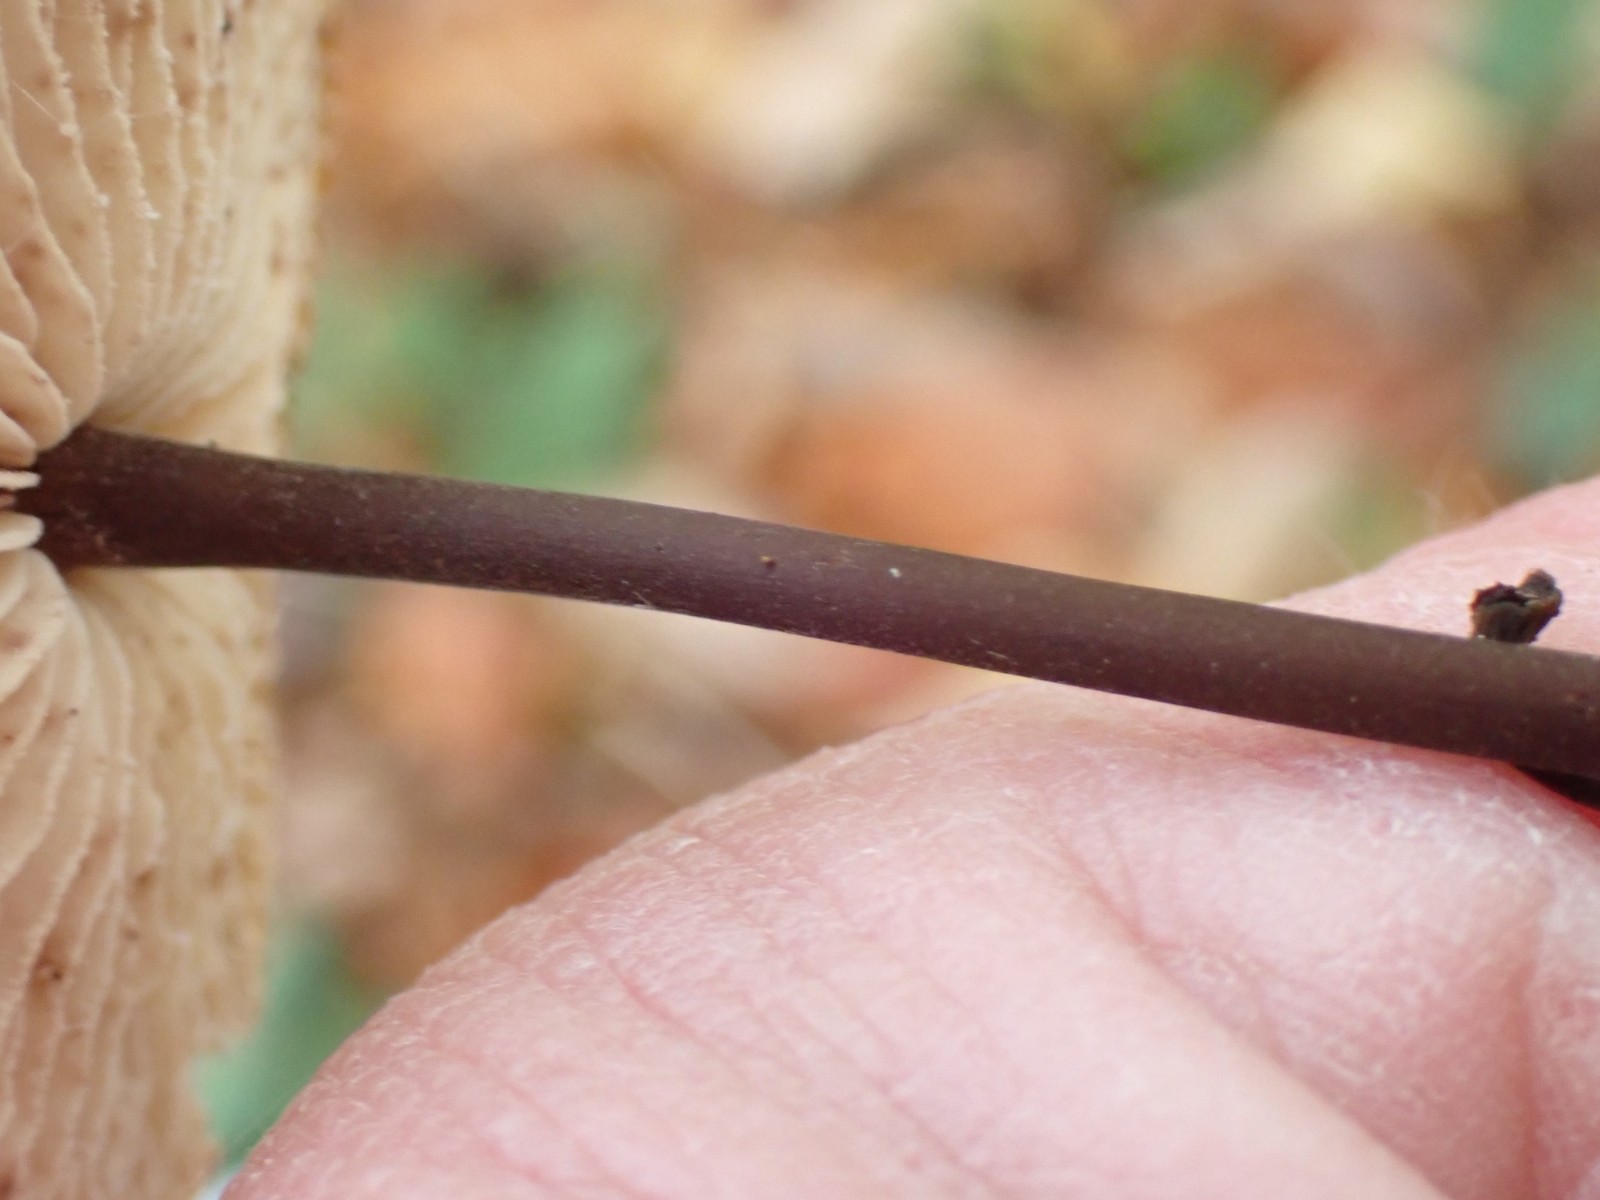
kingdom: Fungi
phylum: Basidiomycota
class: Agaricomycetes
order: Agaricales
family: Omphalotaceae
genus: Mycetinis
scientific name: Mycetinis alliaceus
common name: stor løghat
